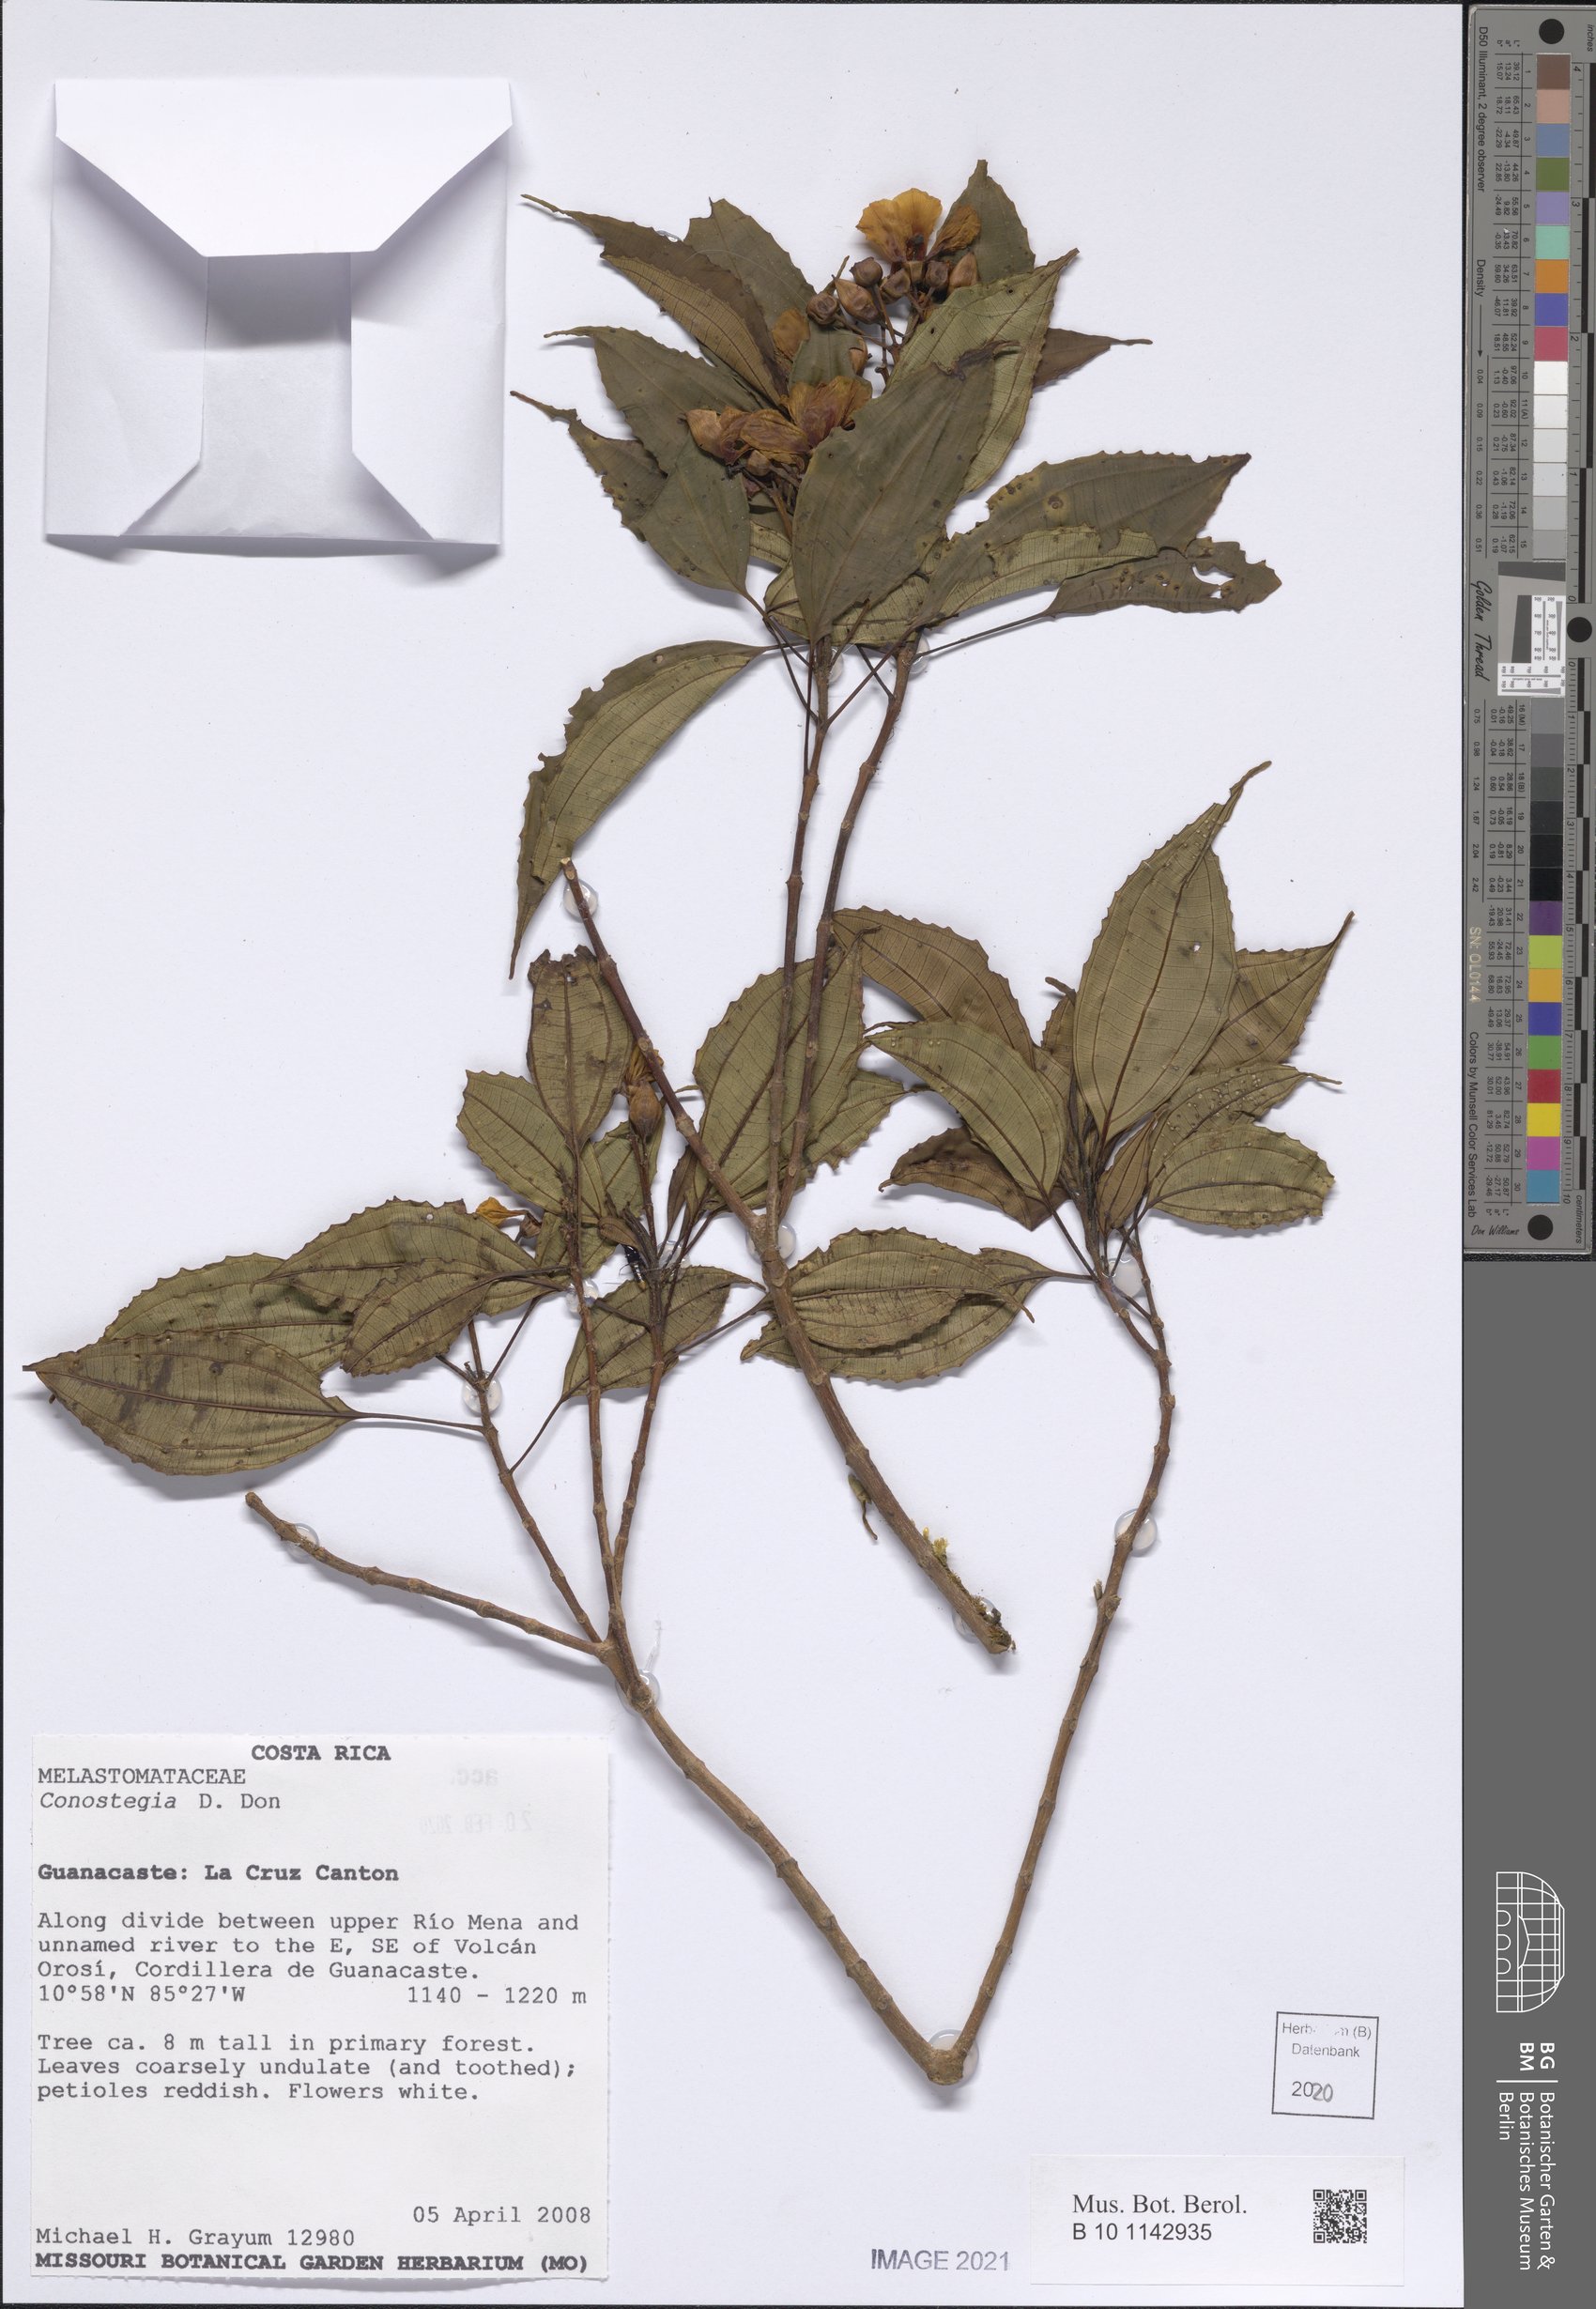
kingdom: Plantae
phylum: Tracheophyta
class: Magnoliopsida
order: Myrtales
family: Melastomataceae
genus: Miconia
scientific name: Miconia
